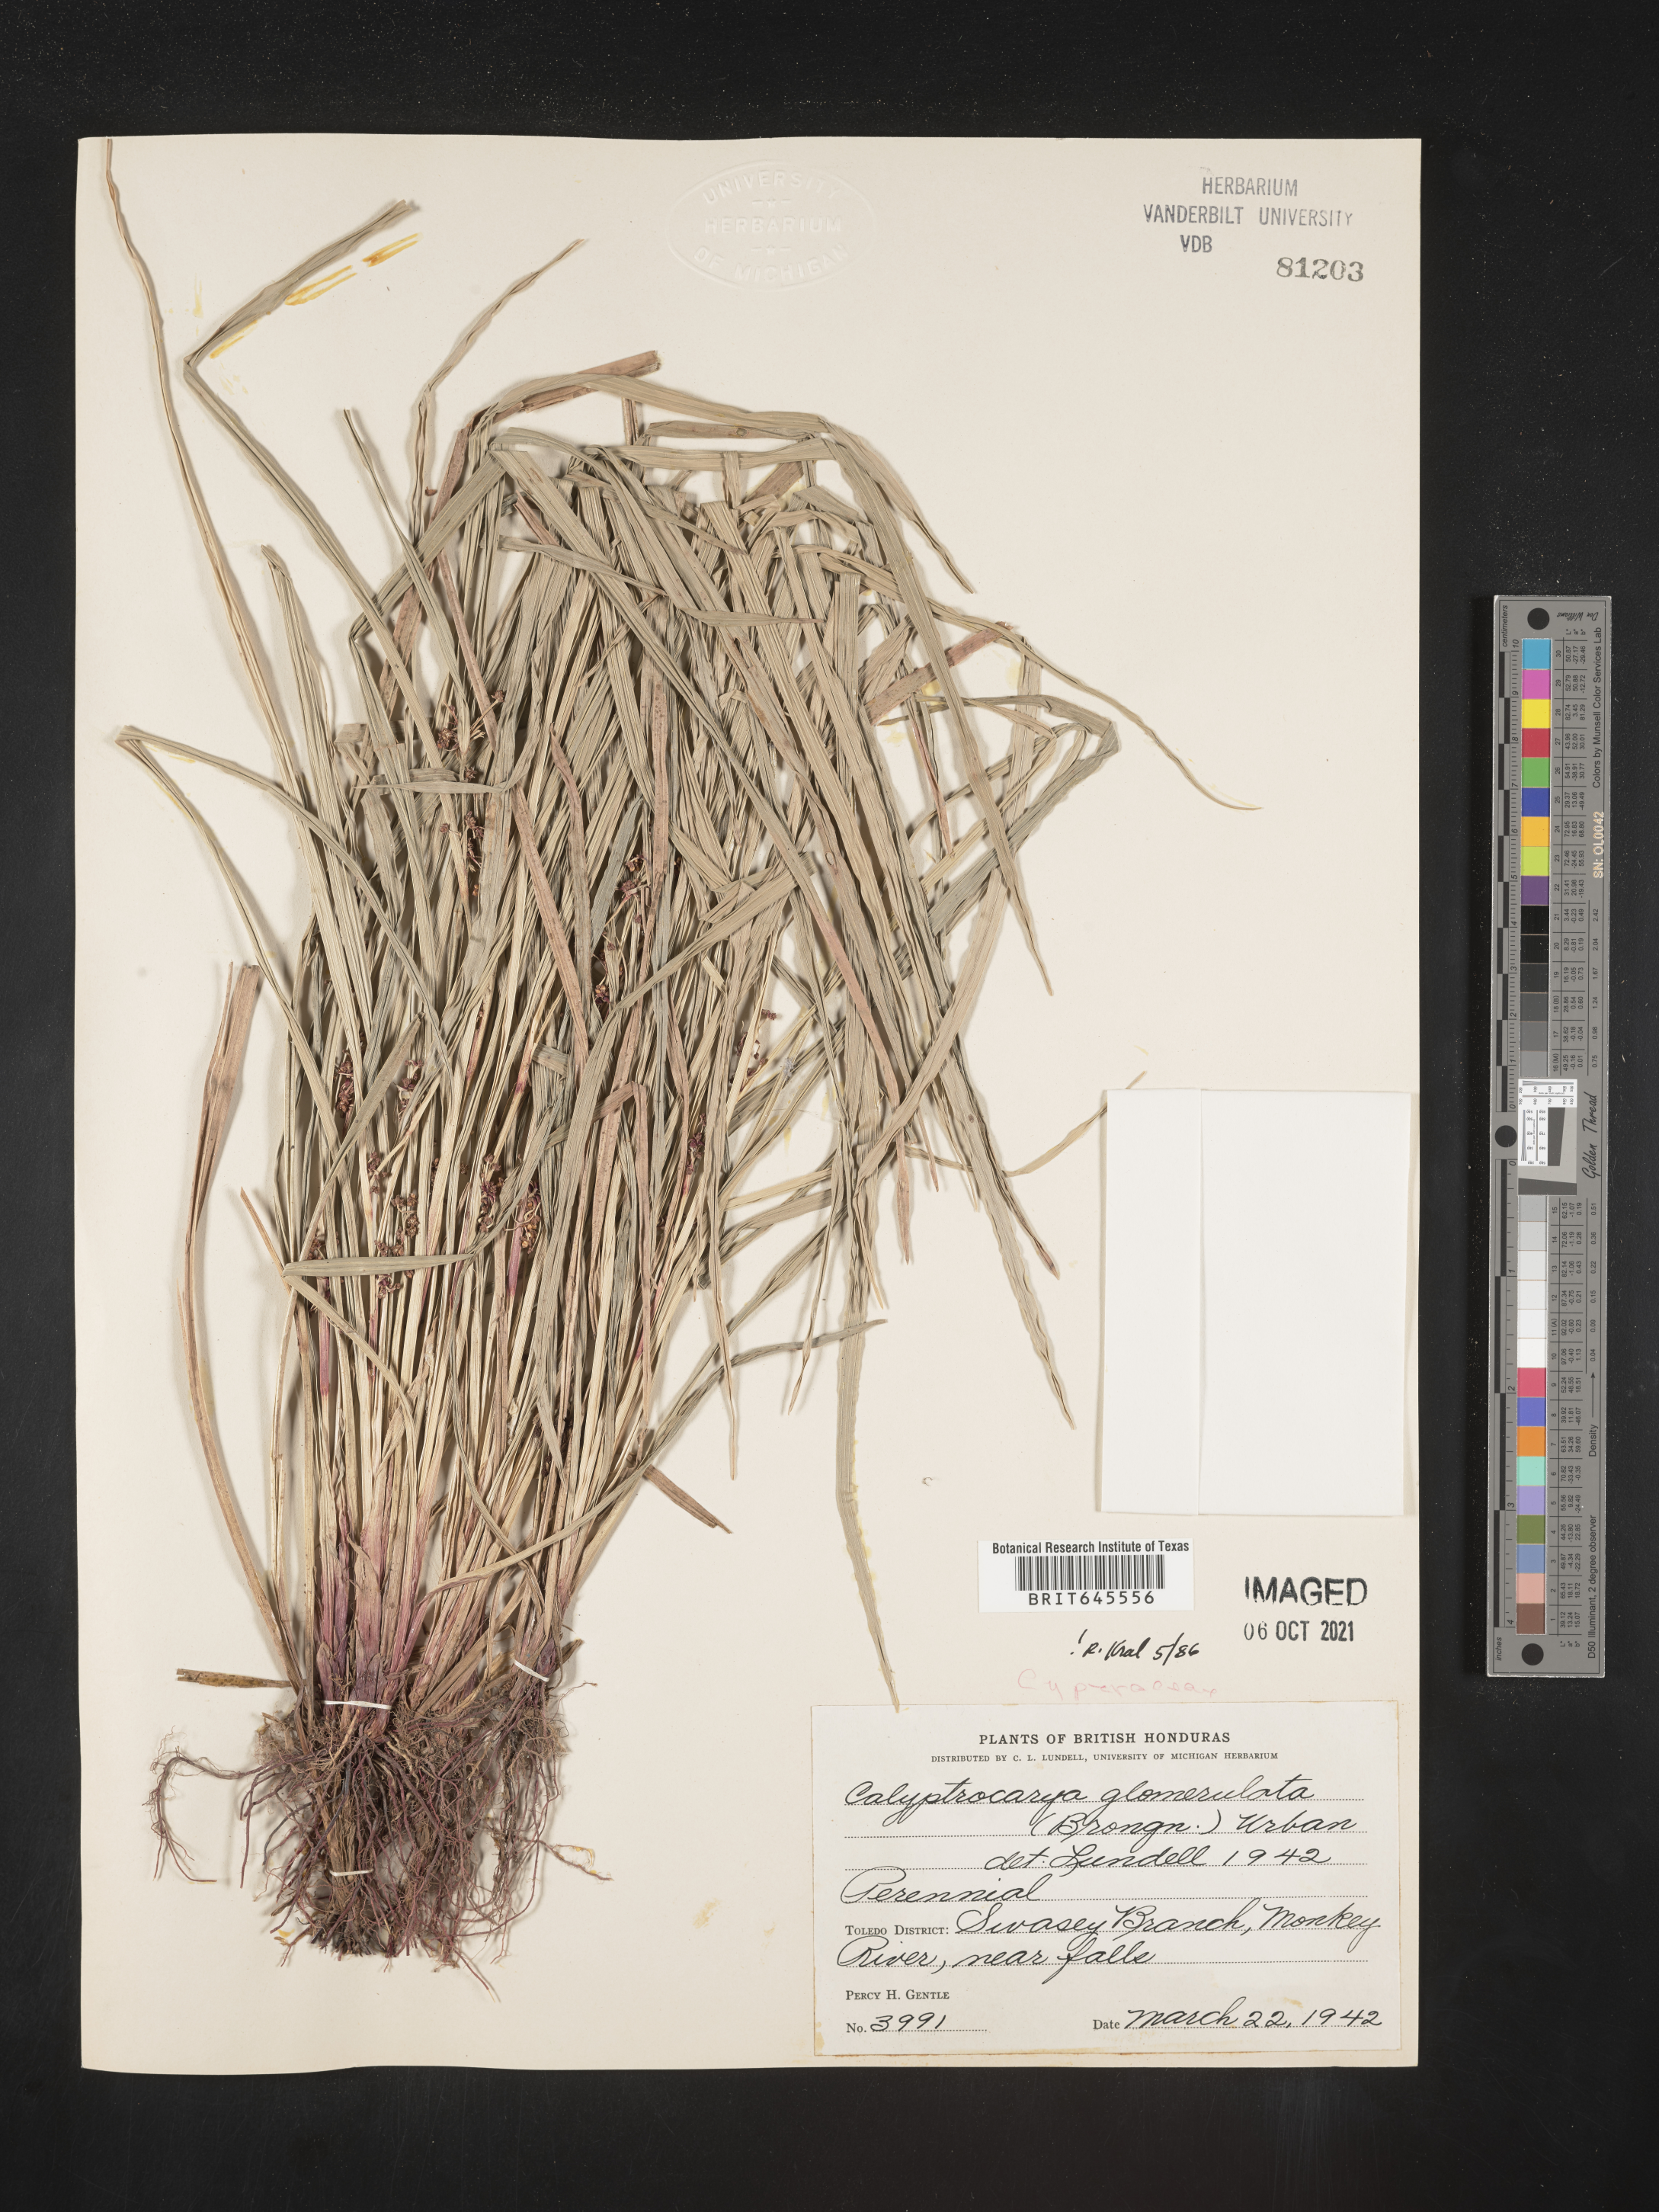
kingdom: Plantae
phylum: Tracheophyta
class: Liliopsida
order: Poales
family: Cyperaceae
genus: Calyptrocarya
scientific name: Calyptrocarya glomerulata
